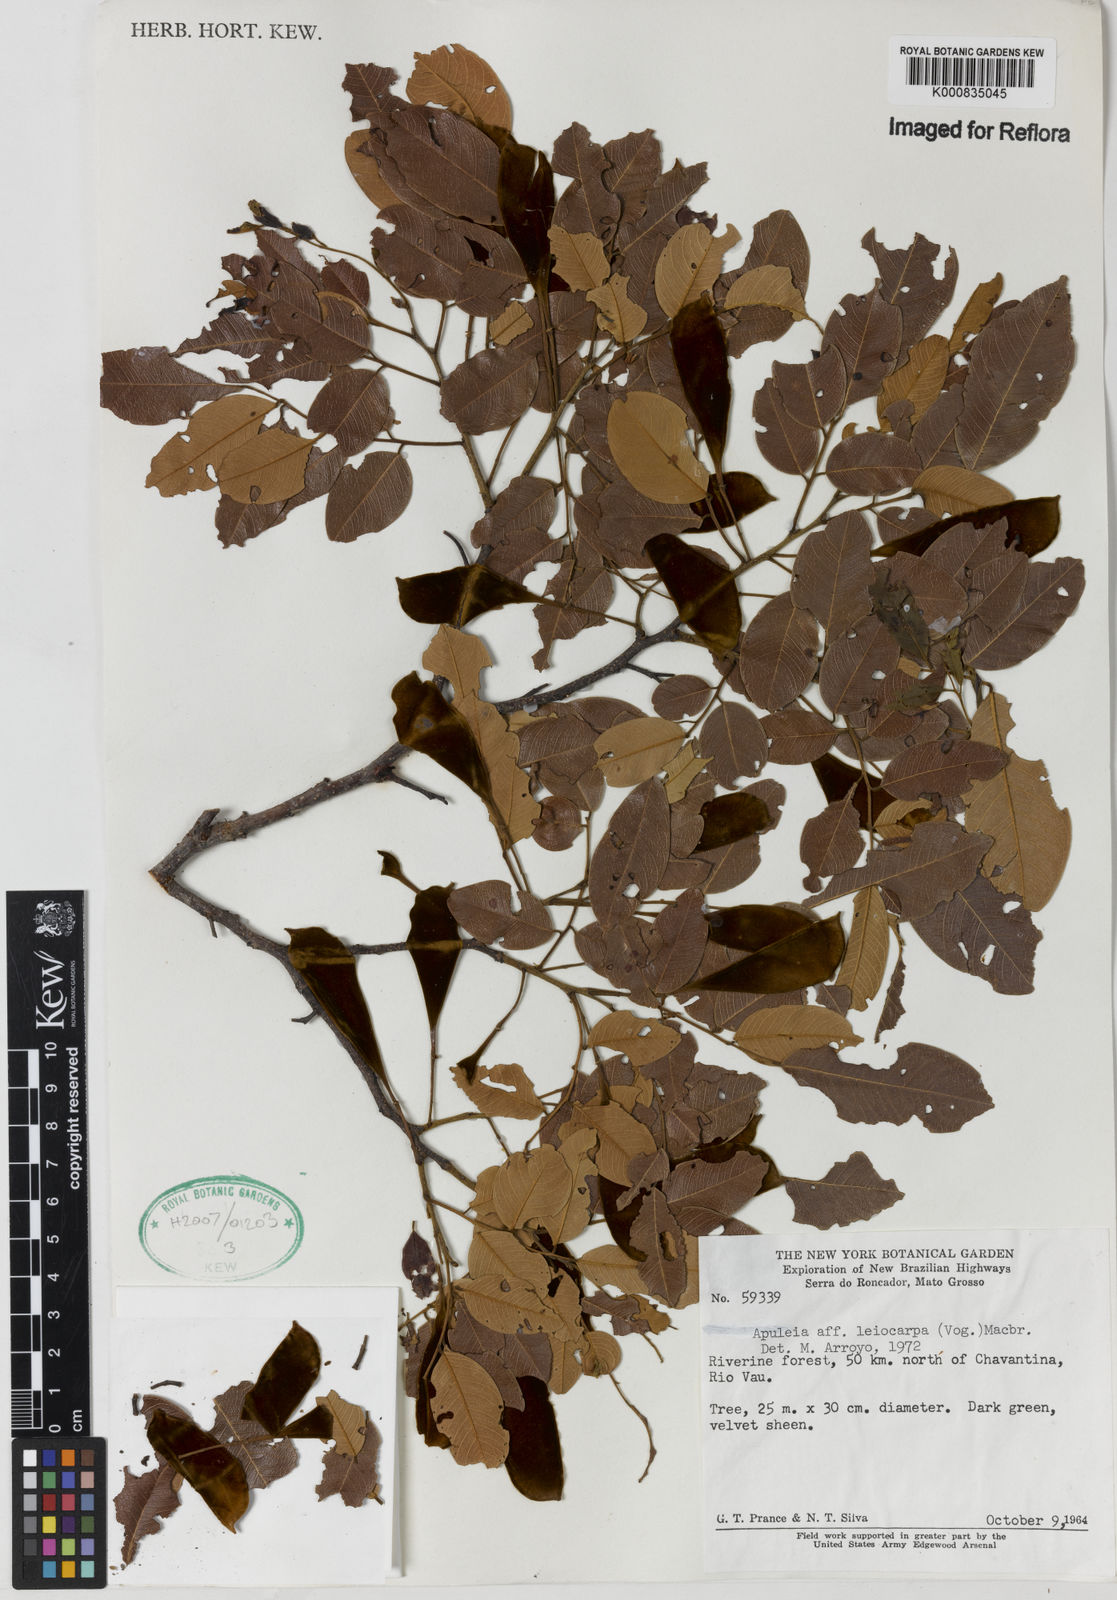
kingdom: Plantae
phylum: Tracheophyta
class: Magnoliopsida
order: Fabales
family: Fabaceae
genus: Apuleia
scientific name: Apuleia leiocarpa
